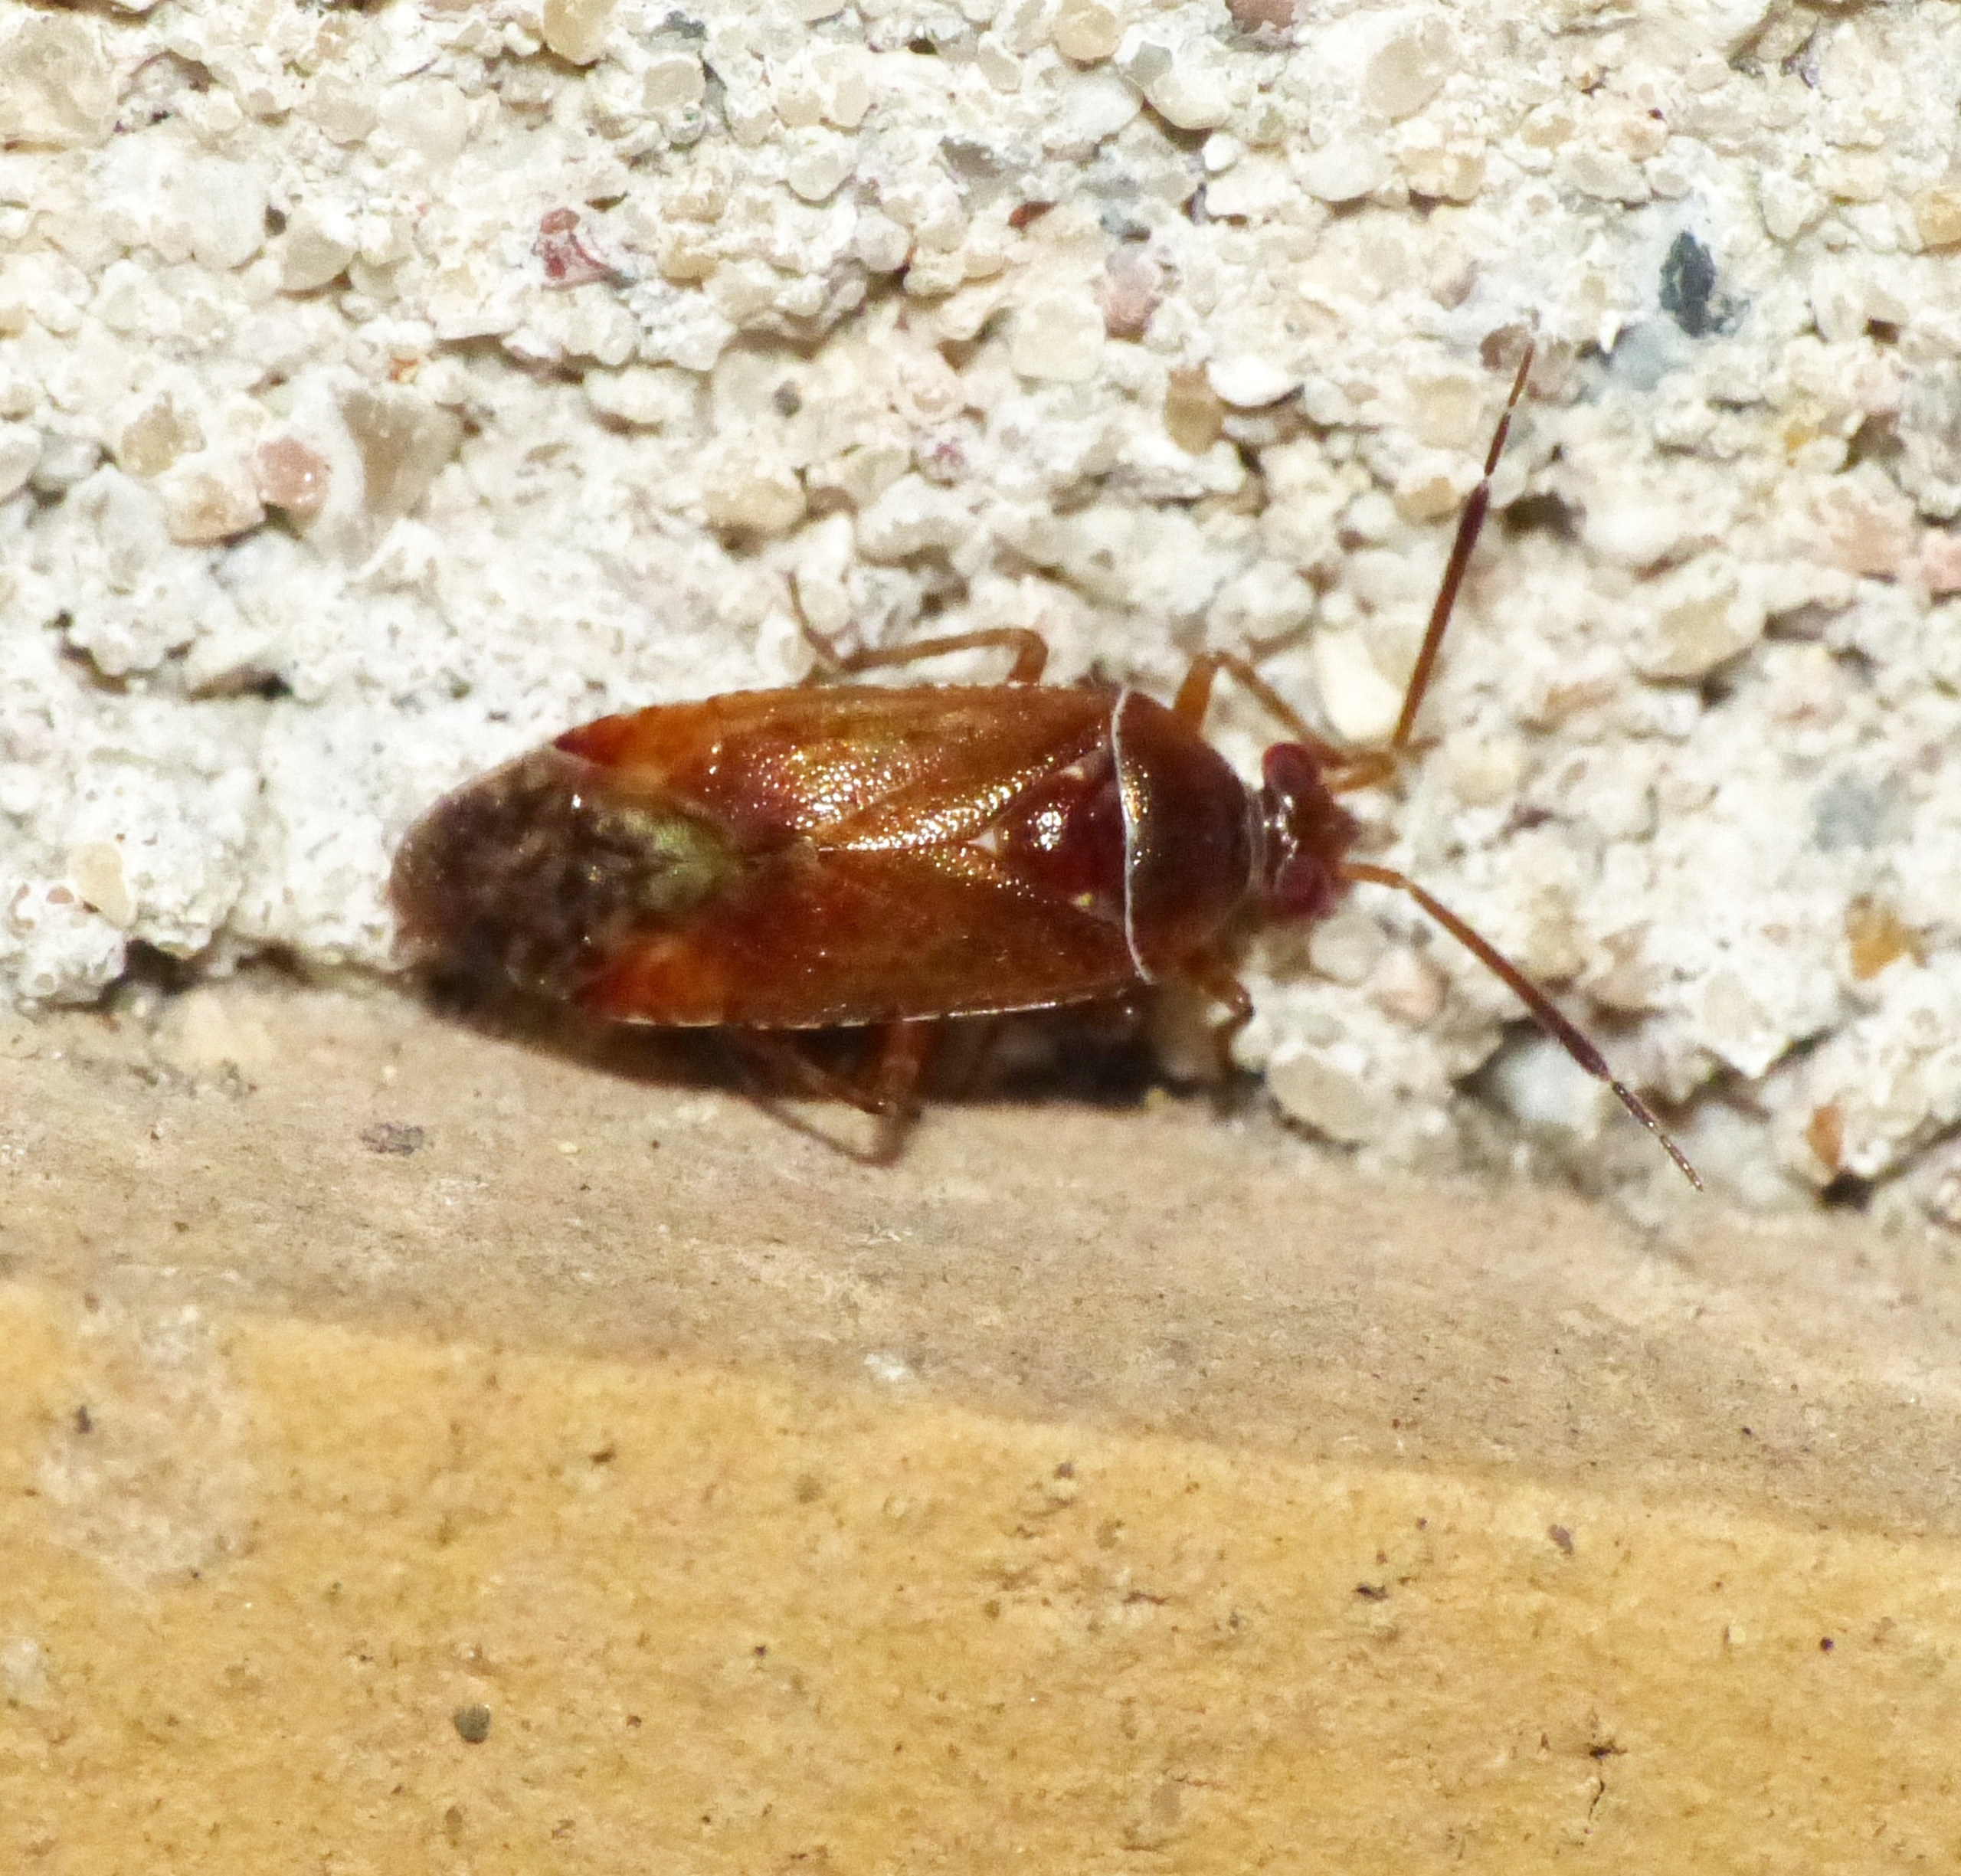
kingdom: Animalia
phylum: Arthropoda
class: Insecta
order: Hemiptera
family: Miridae
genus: Alloeotomus
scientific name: Alloeotomus germanicus
